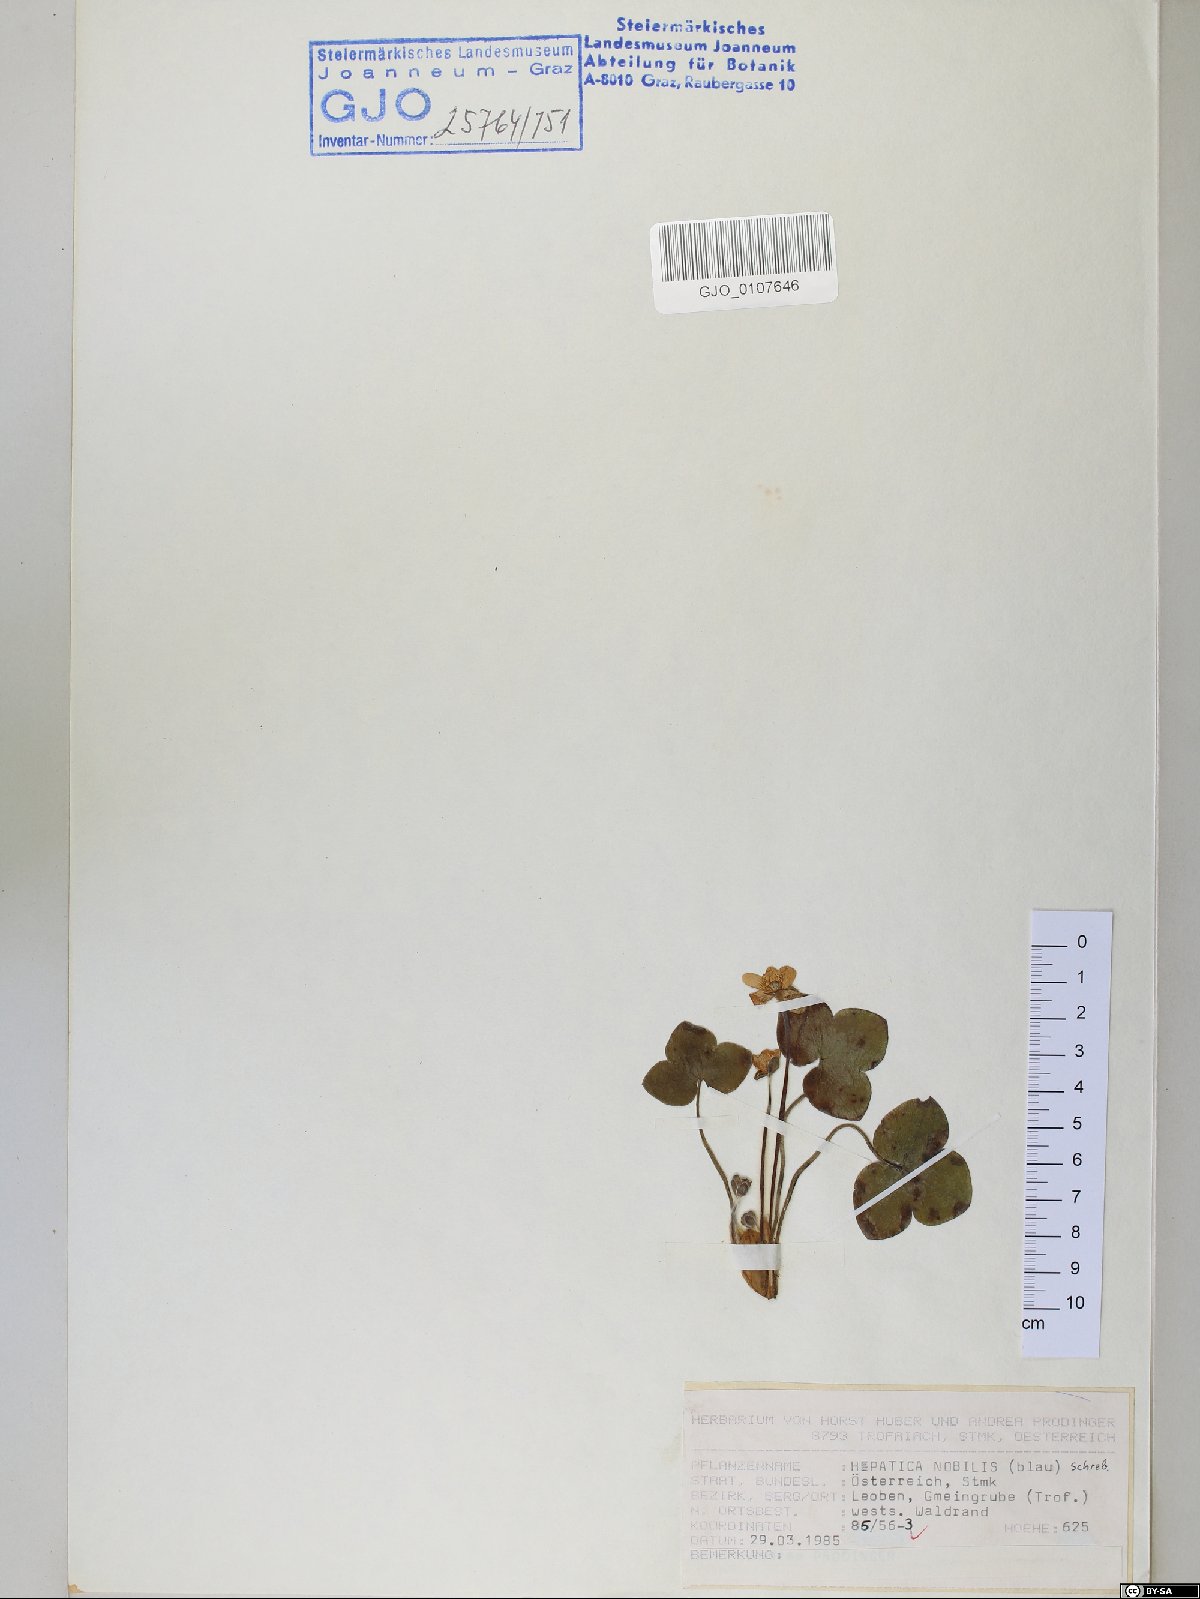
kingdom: Plantae
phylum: Tracheophyta
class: Magnoliopsida
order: Ranunculales
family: Ranunculaceae
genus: Hepatica
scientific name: Hepatica nobilis
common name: Liverleaf
